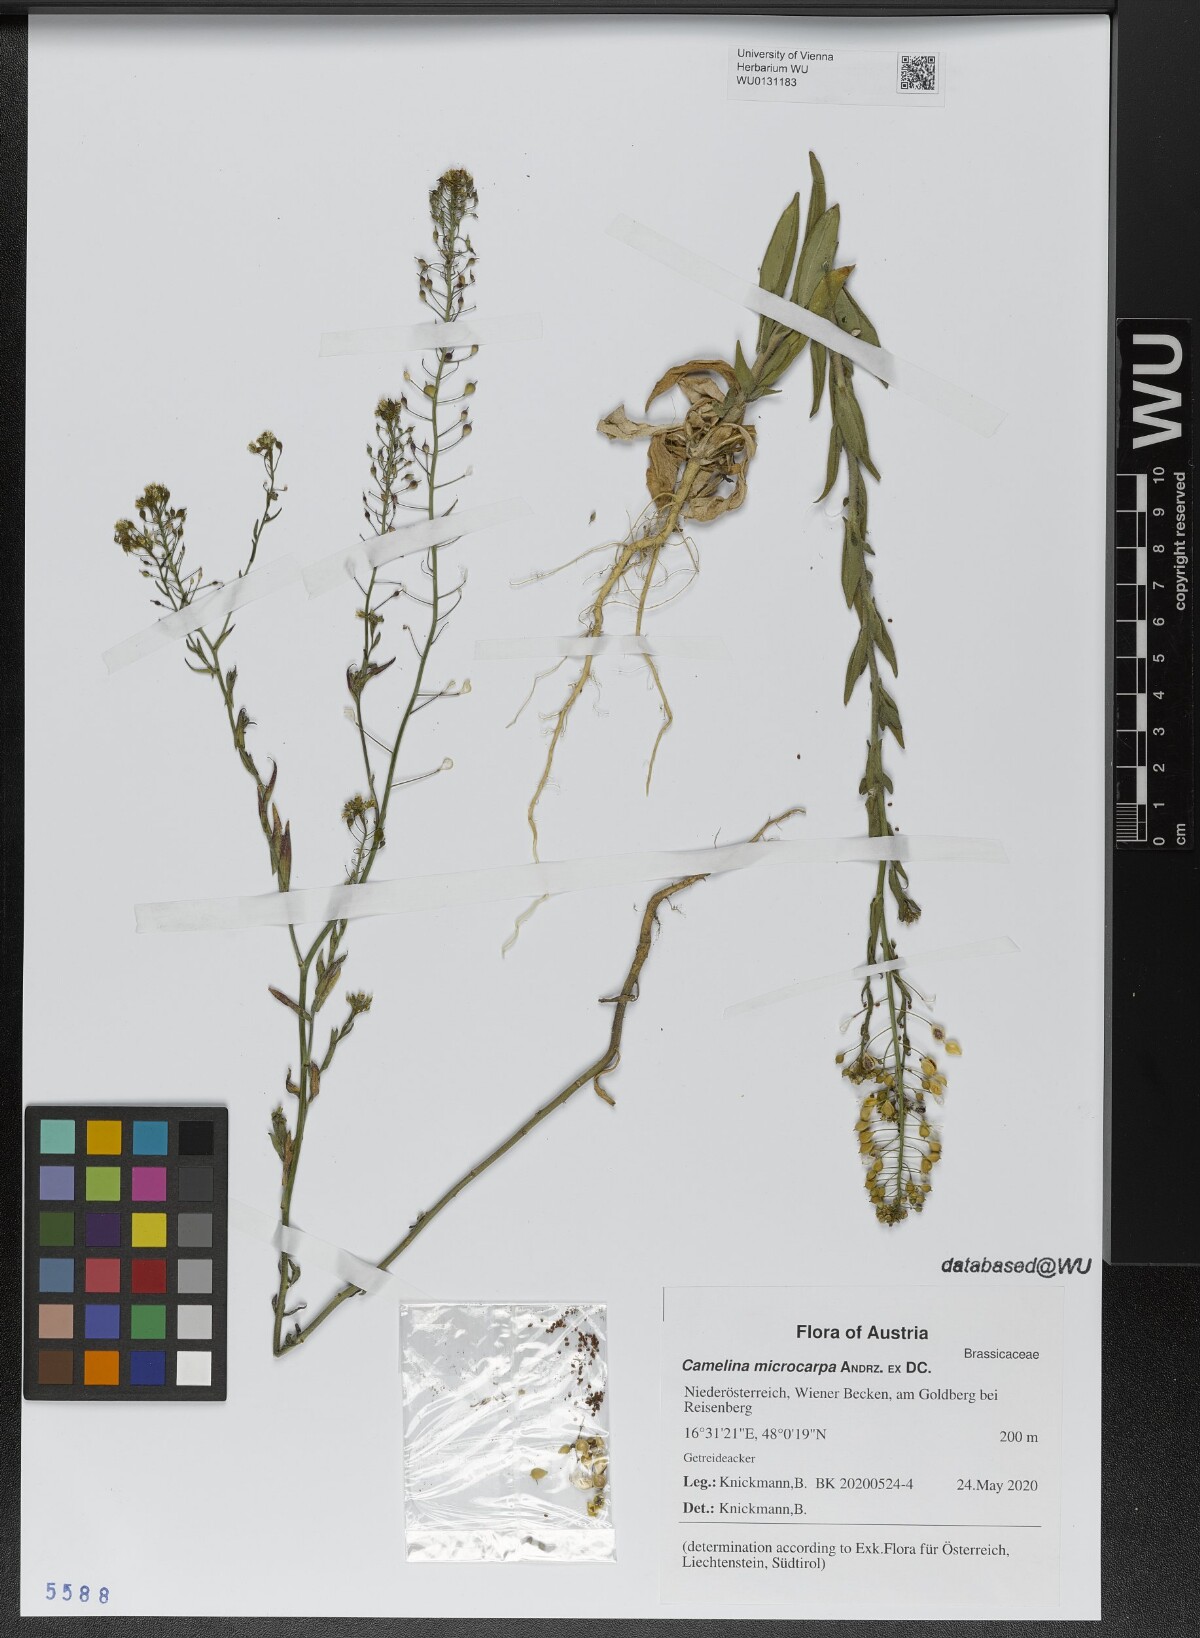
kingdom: Plantae
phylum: Tracheophyta
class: Magnoliopsida
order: Brassicales
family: Brassicaceae
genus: Camelina
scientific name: Camelina microcarpa
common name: Lesser gold-of-pleasure
